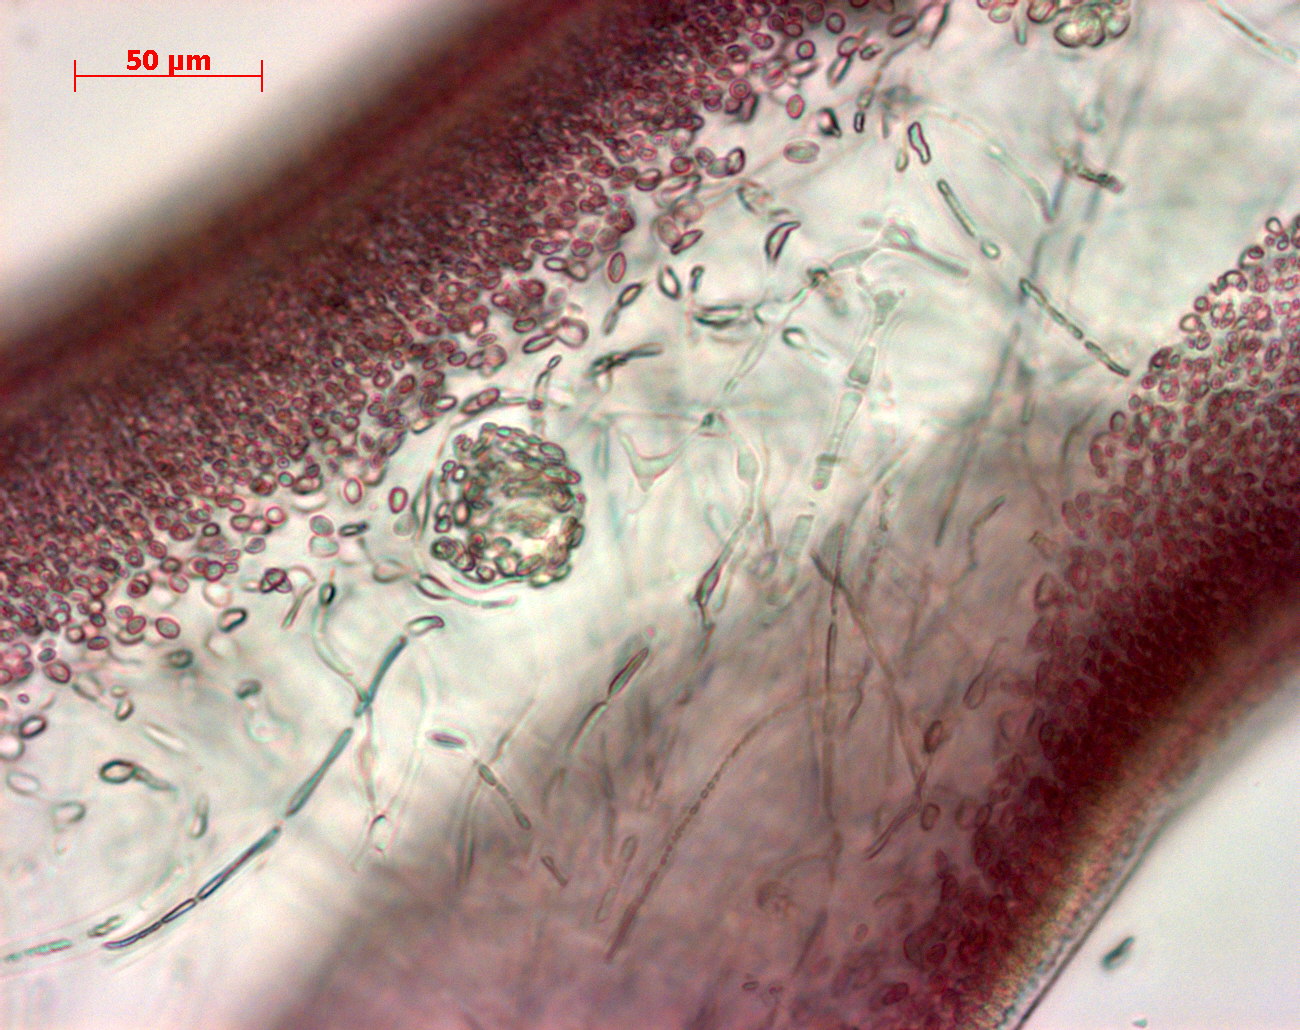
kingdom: Plantae
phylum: Tracheophyta
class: Magnoliopsida
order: Geraniales
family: Geraniaceae
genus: Geranium
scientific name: Geranium dissectum
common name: Cut-leaved crane's-bill
